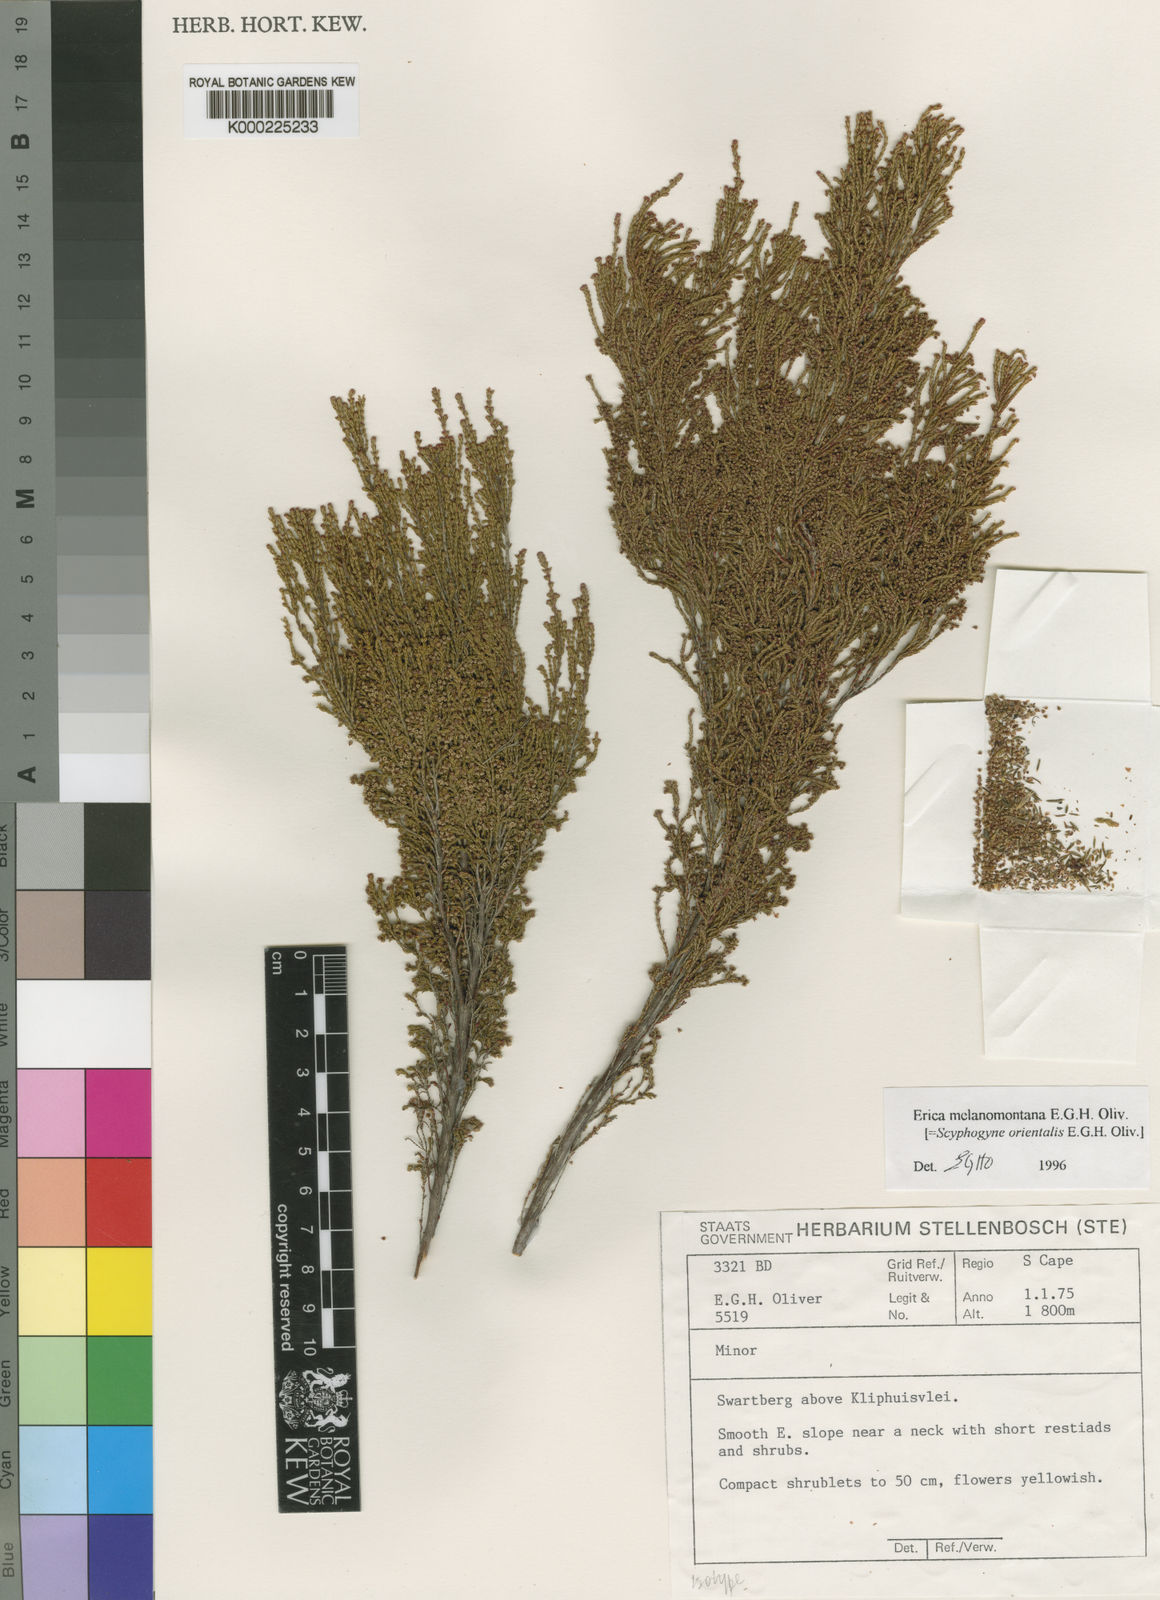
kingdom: Plantae
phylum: Tracheophyta
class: Magnoliopsida
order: Ericales
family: Ericaceae
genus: Erica
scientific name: Erica melanomontana
